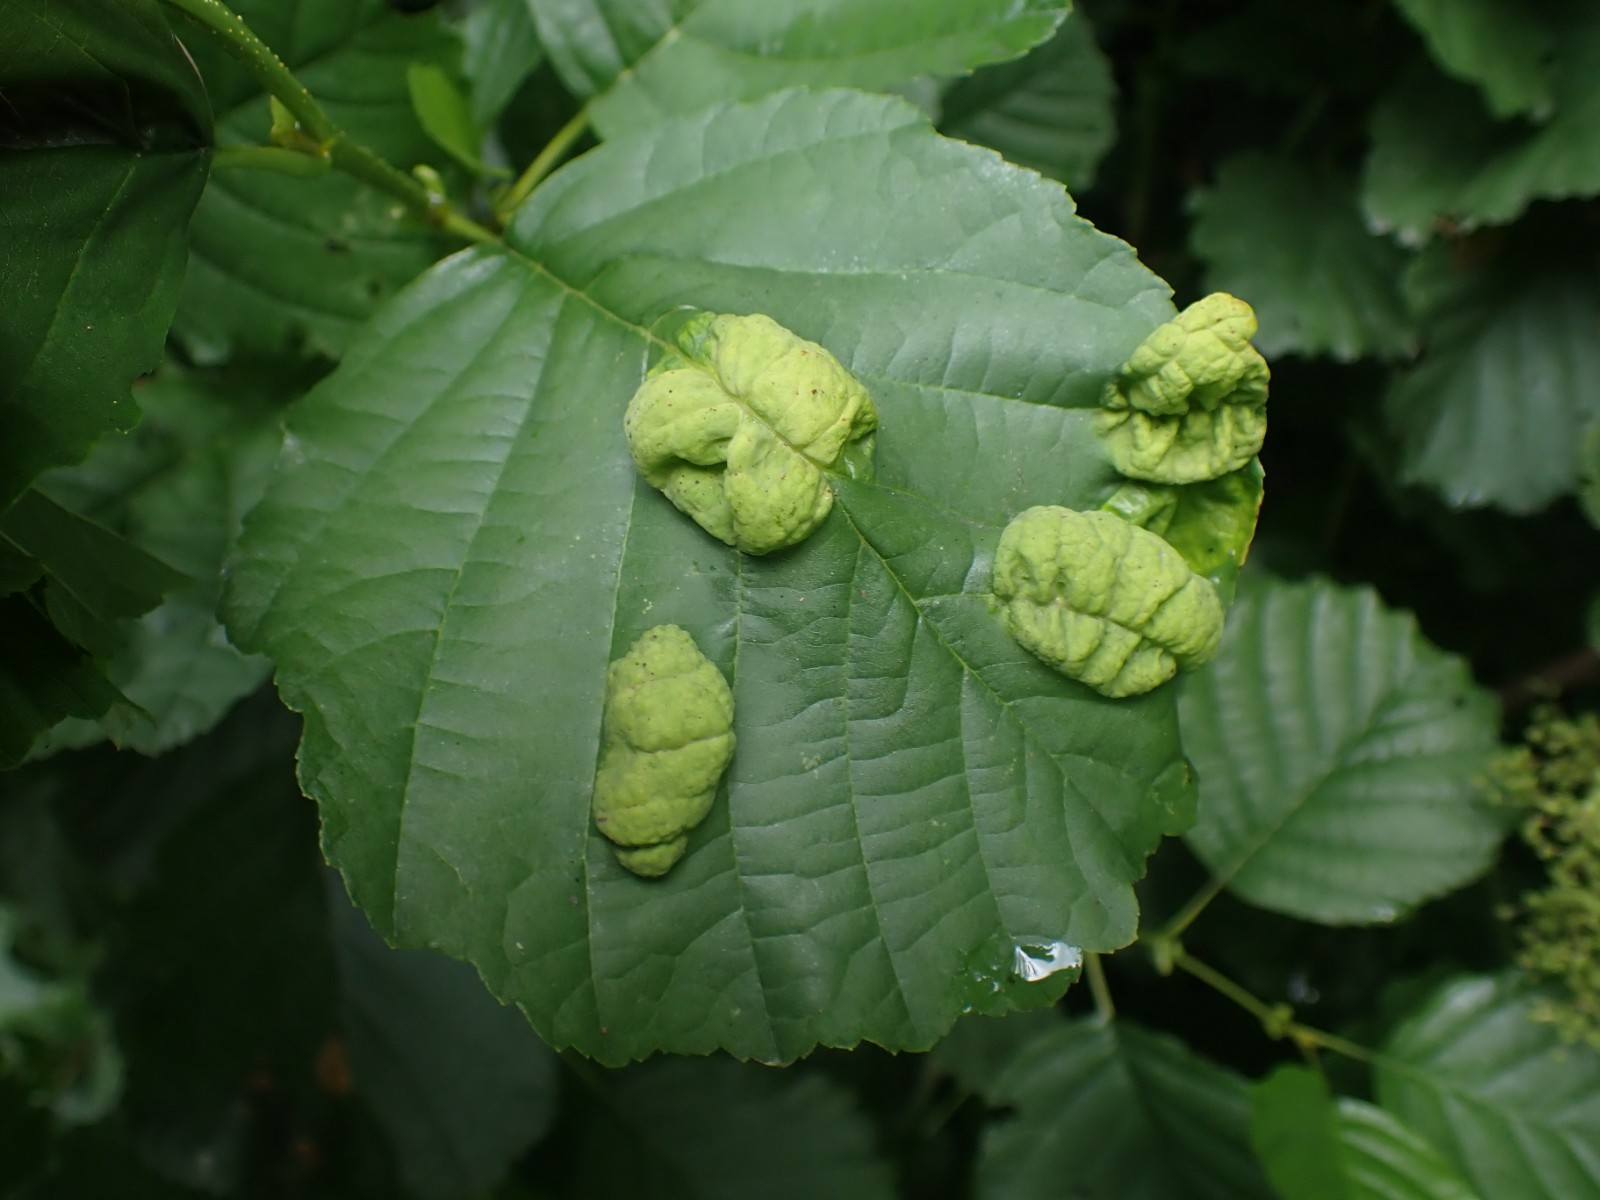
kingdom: Fungi
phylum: Ascomycota
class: Taphrinomycetes
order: Taphrinales
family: Taphrinaceae
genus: Taphrina
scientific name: Taphrina tosquinetii
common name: Alder wrinkle
